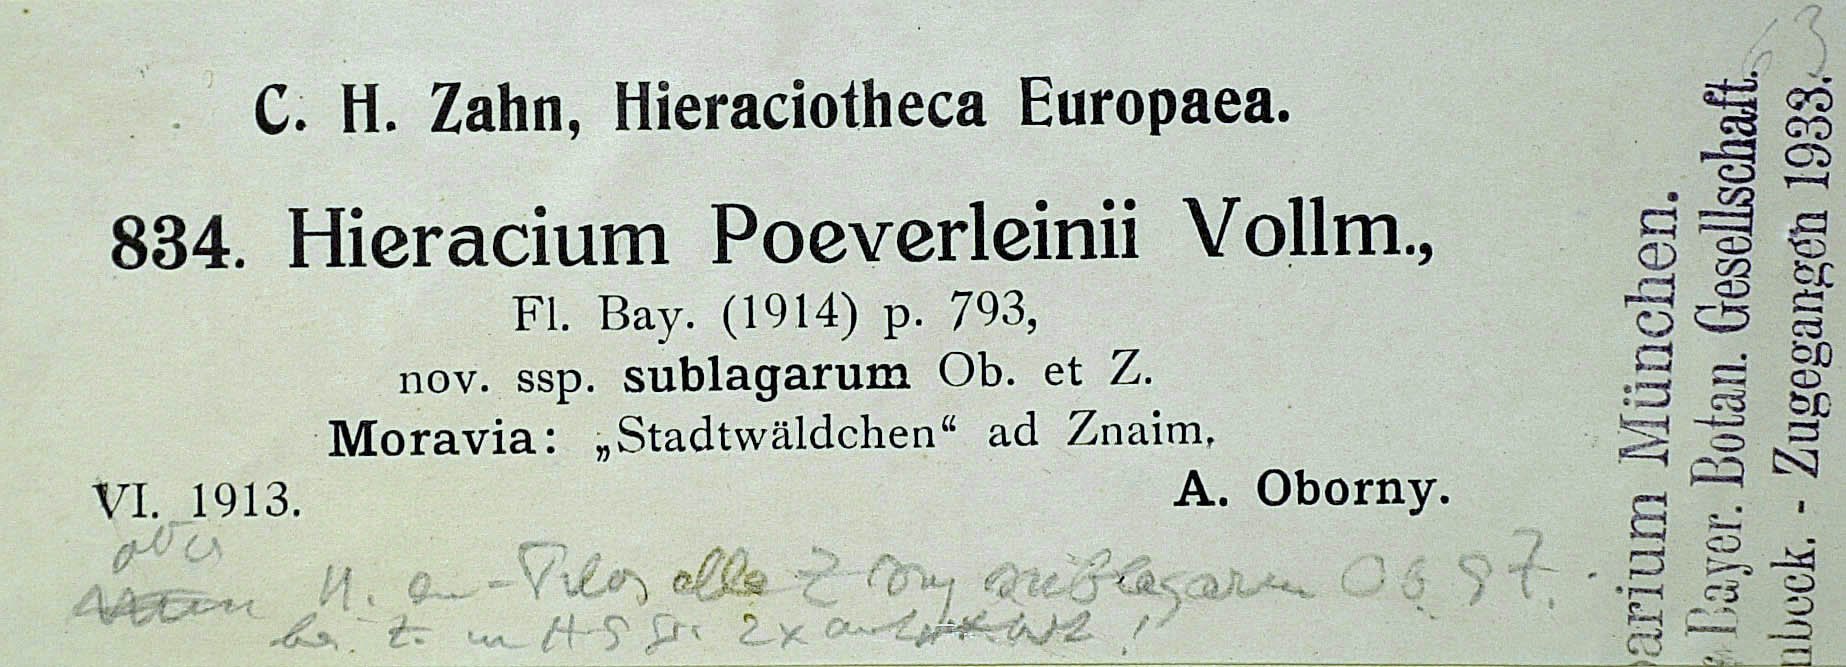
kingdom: Plantae
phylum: Tracheophyta
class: Magnoliopsida
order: Asterales
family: Asteraceae
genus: Pilosella
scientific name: Pilosella acutifolia
